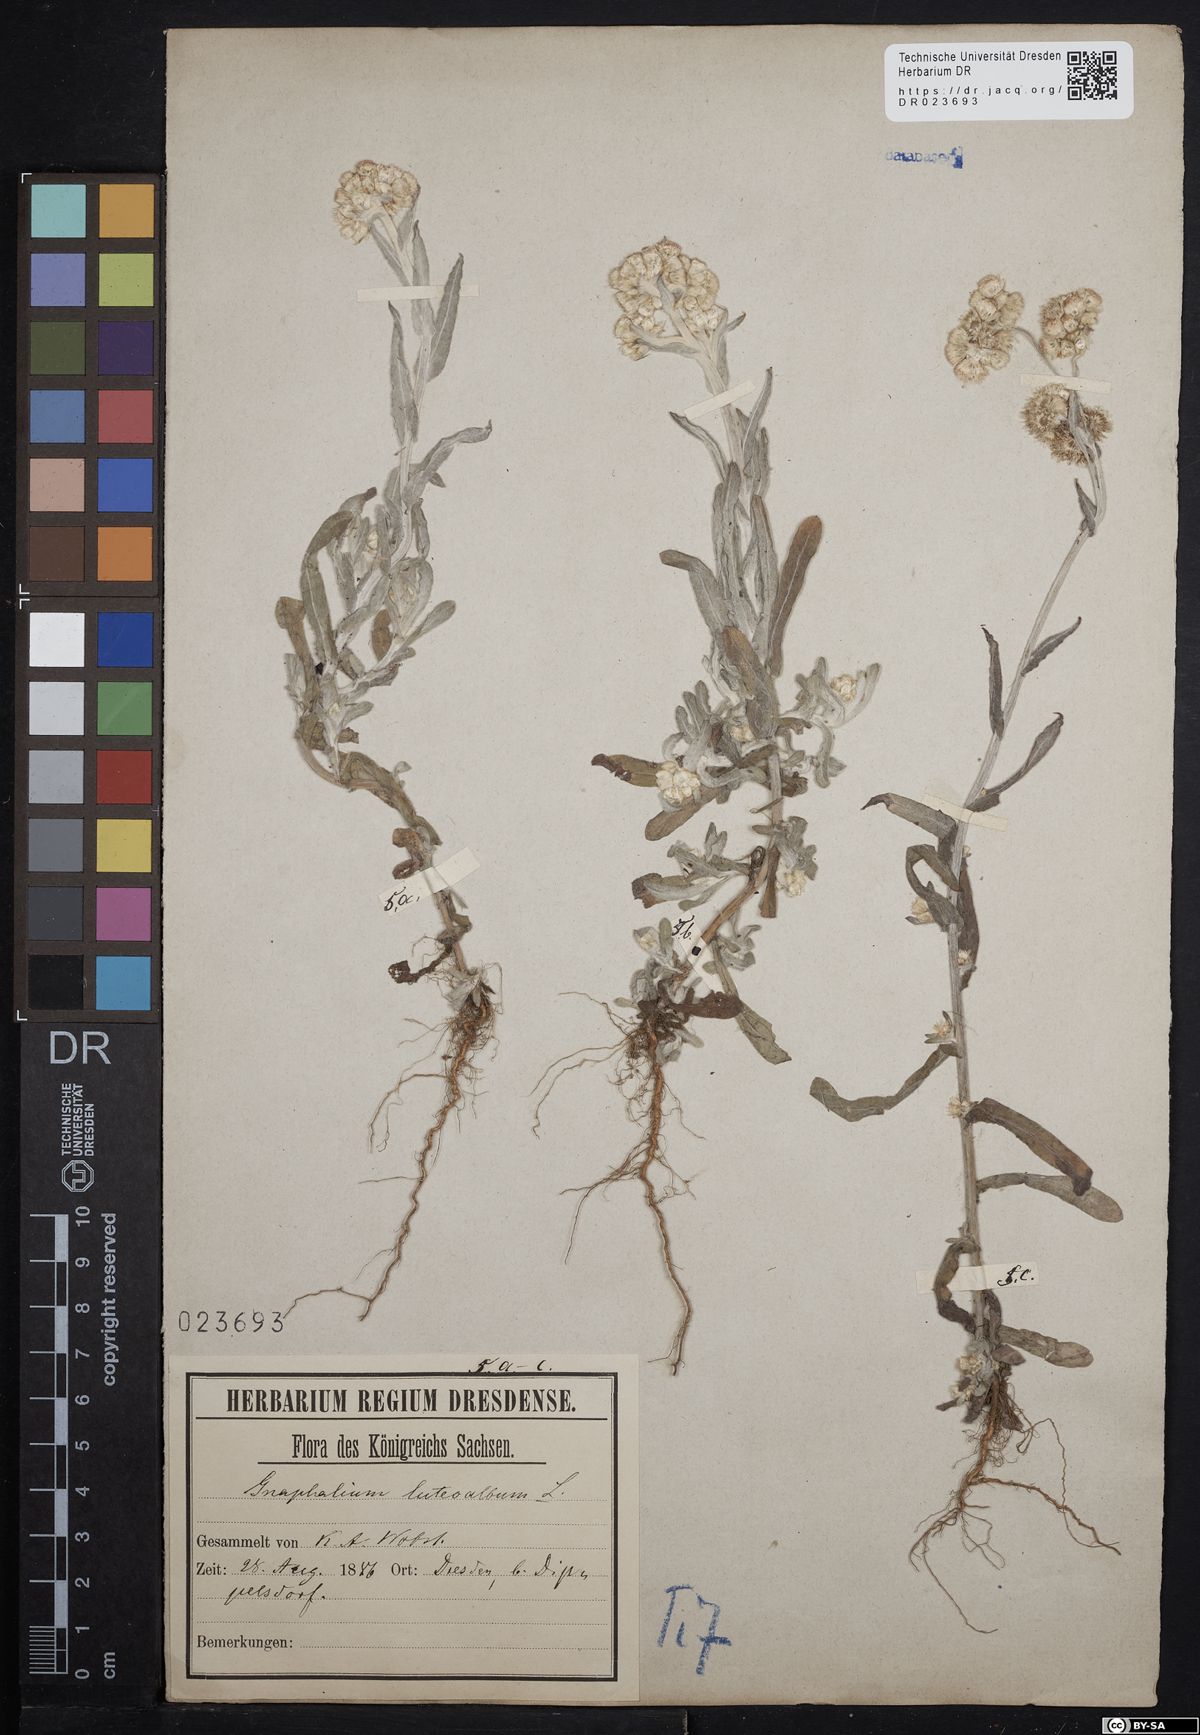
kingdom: Plantae
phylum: Tracheophyta
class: Magnoliopsida
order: Asterales
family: Asteraceae
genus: Helichrysum
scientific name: Helichrysum luteoalbum
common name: Daisy
